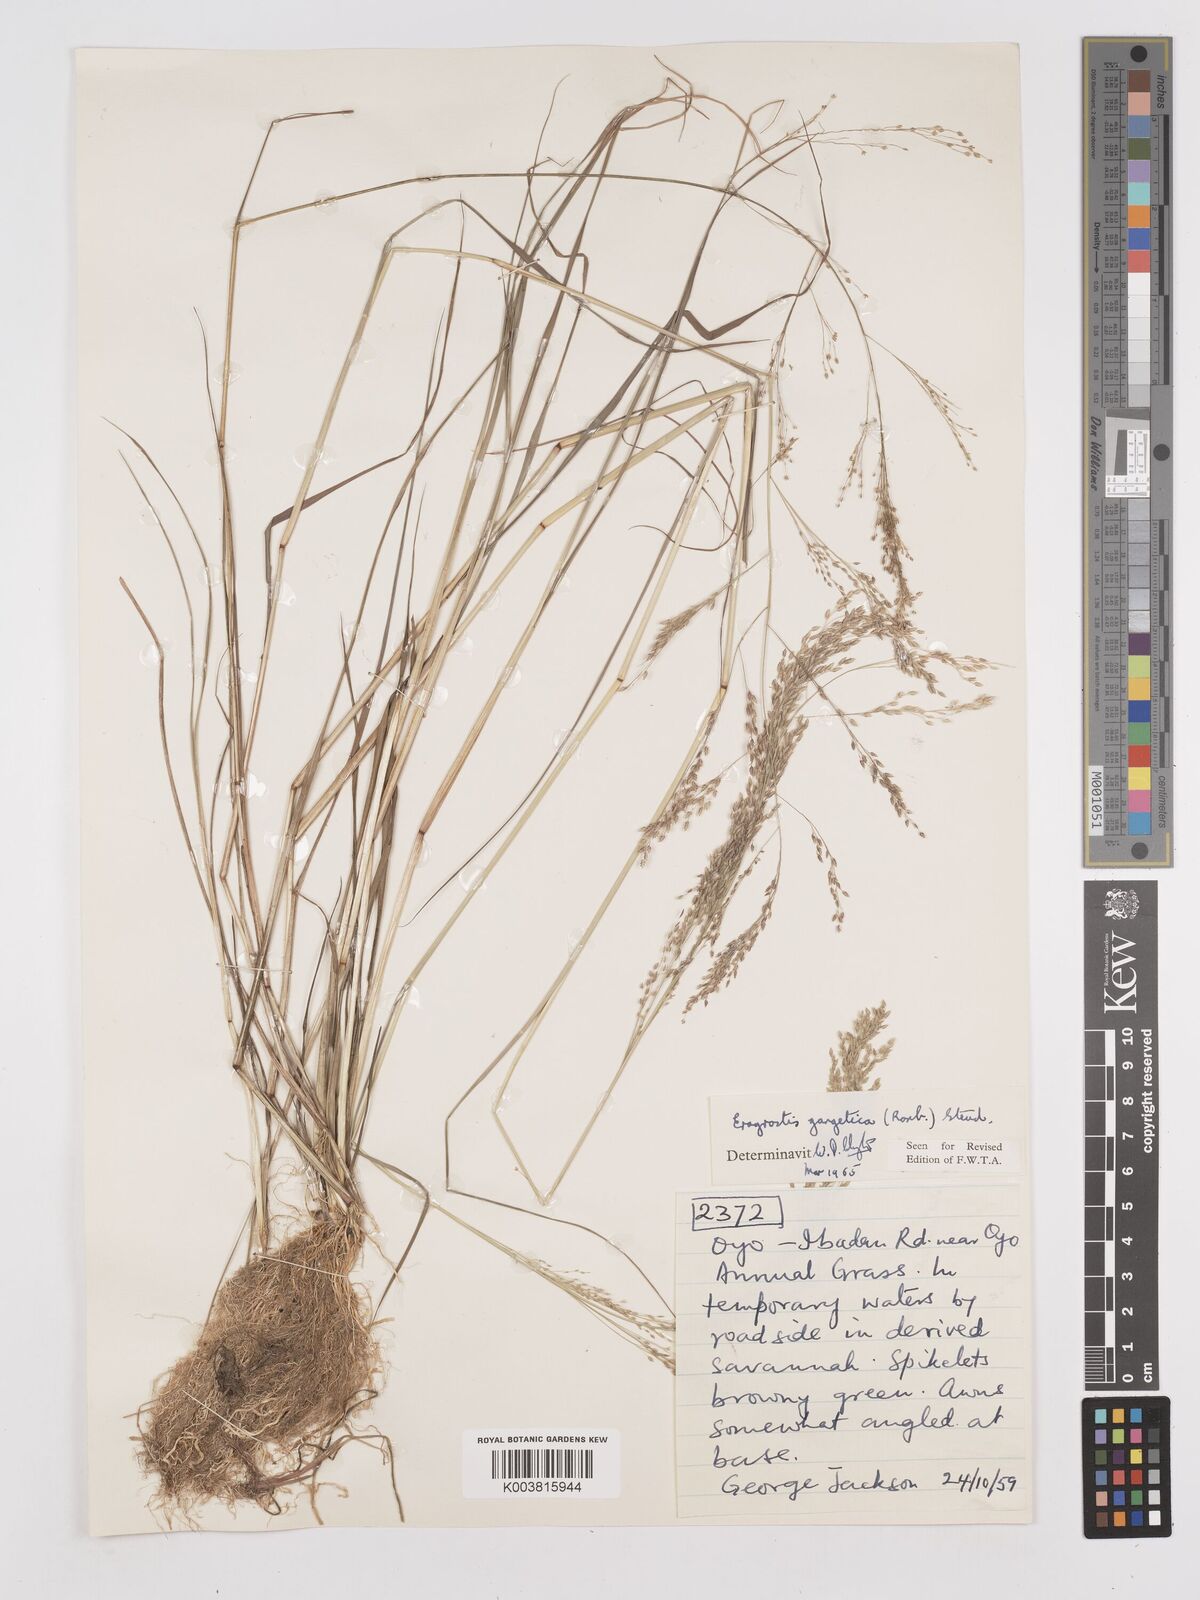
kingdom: Plantae
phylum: Tracheophyta
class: Liliopsida
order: Poales
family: Poaceae
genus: Eragrostis
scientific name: Eragrostis gangetica
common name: Slimflower lovegrass
